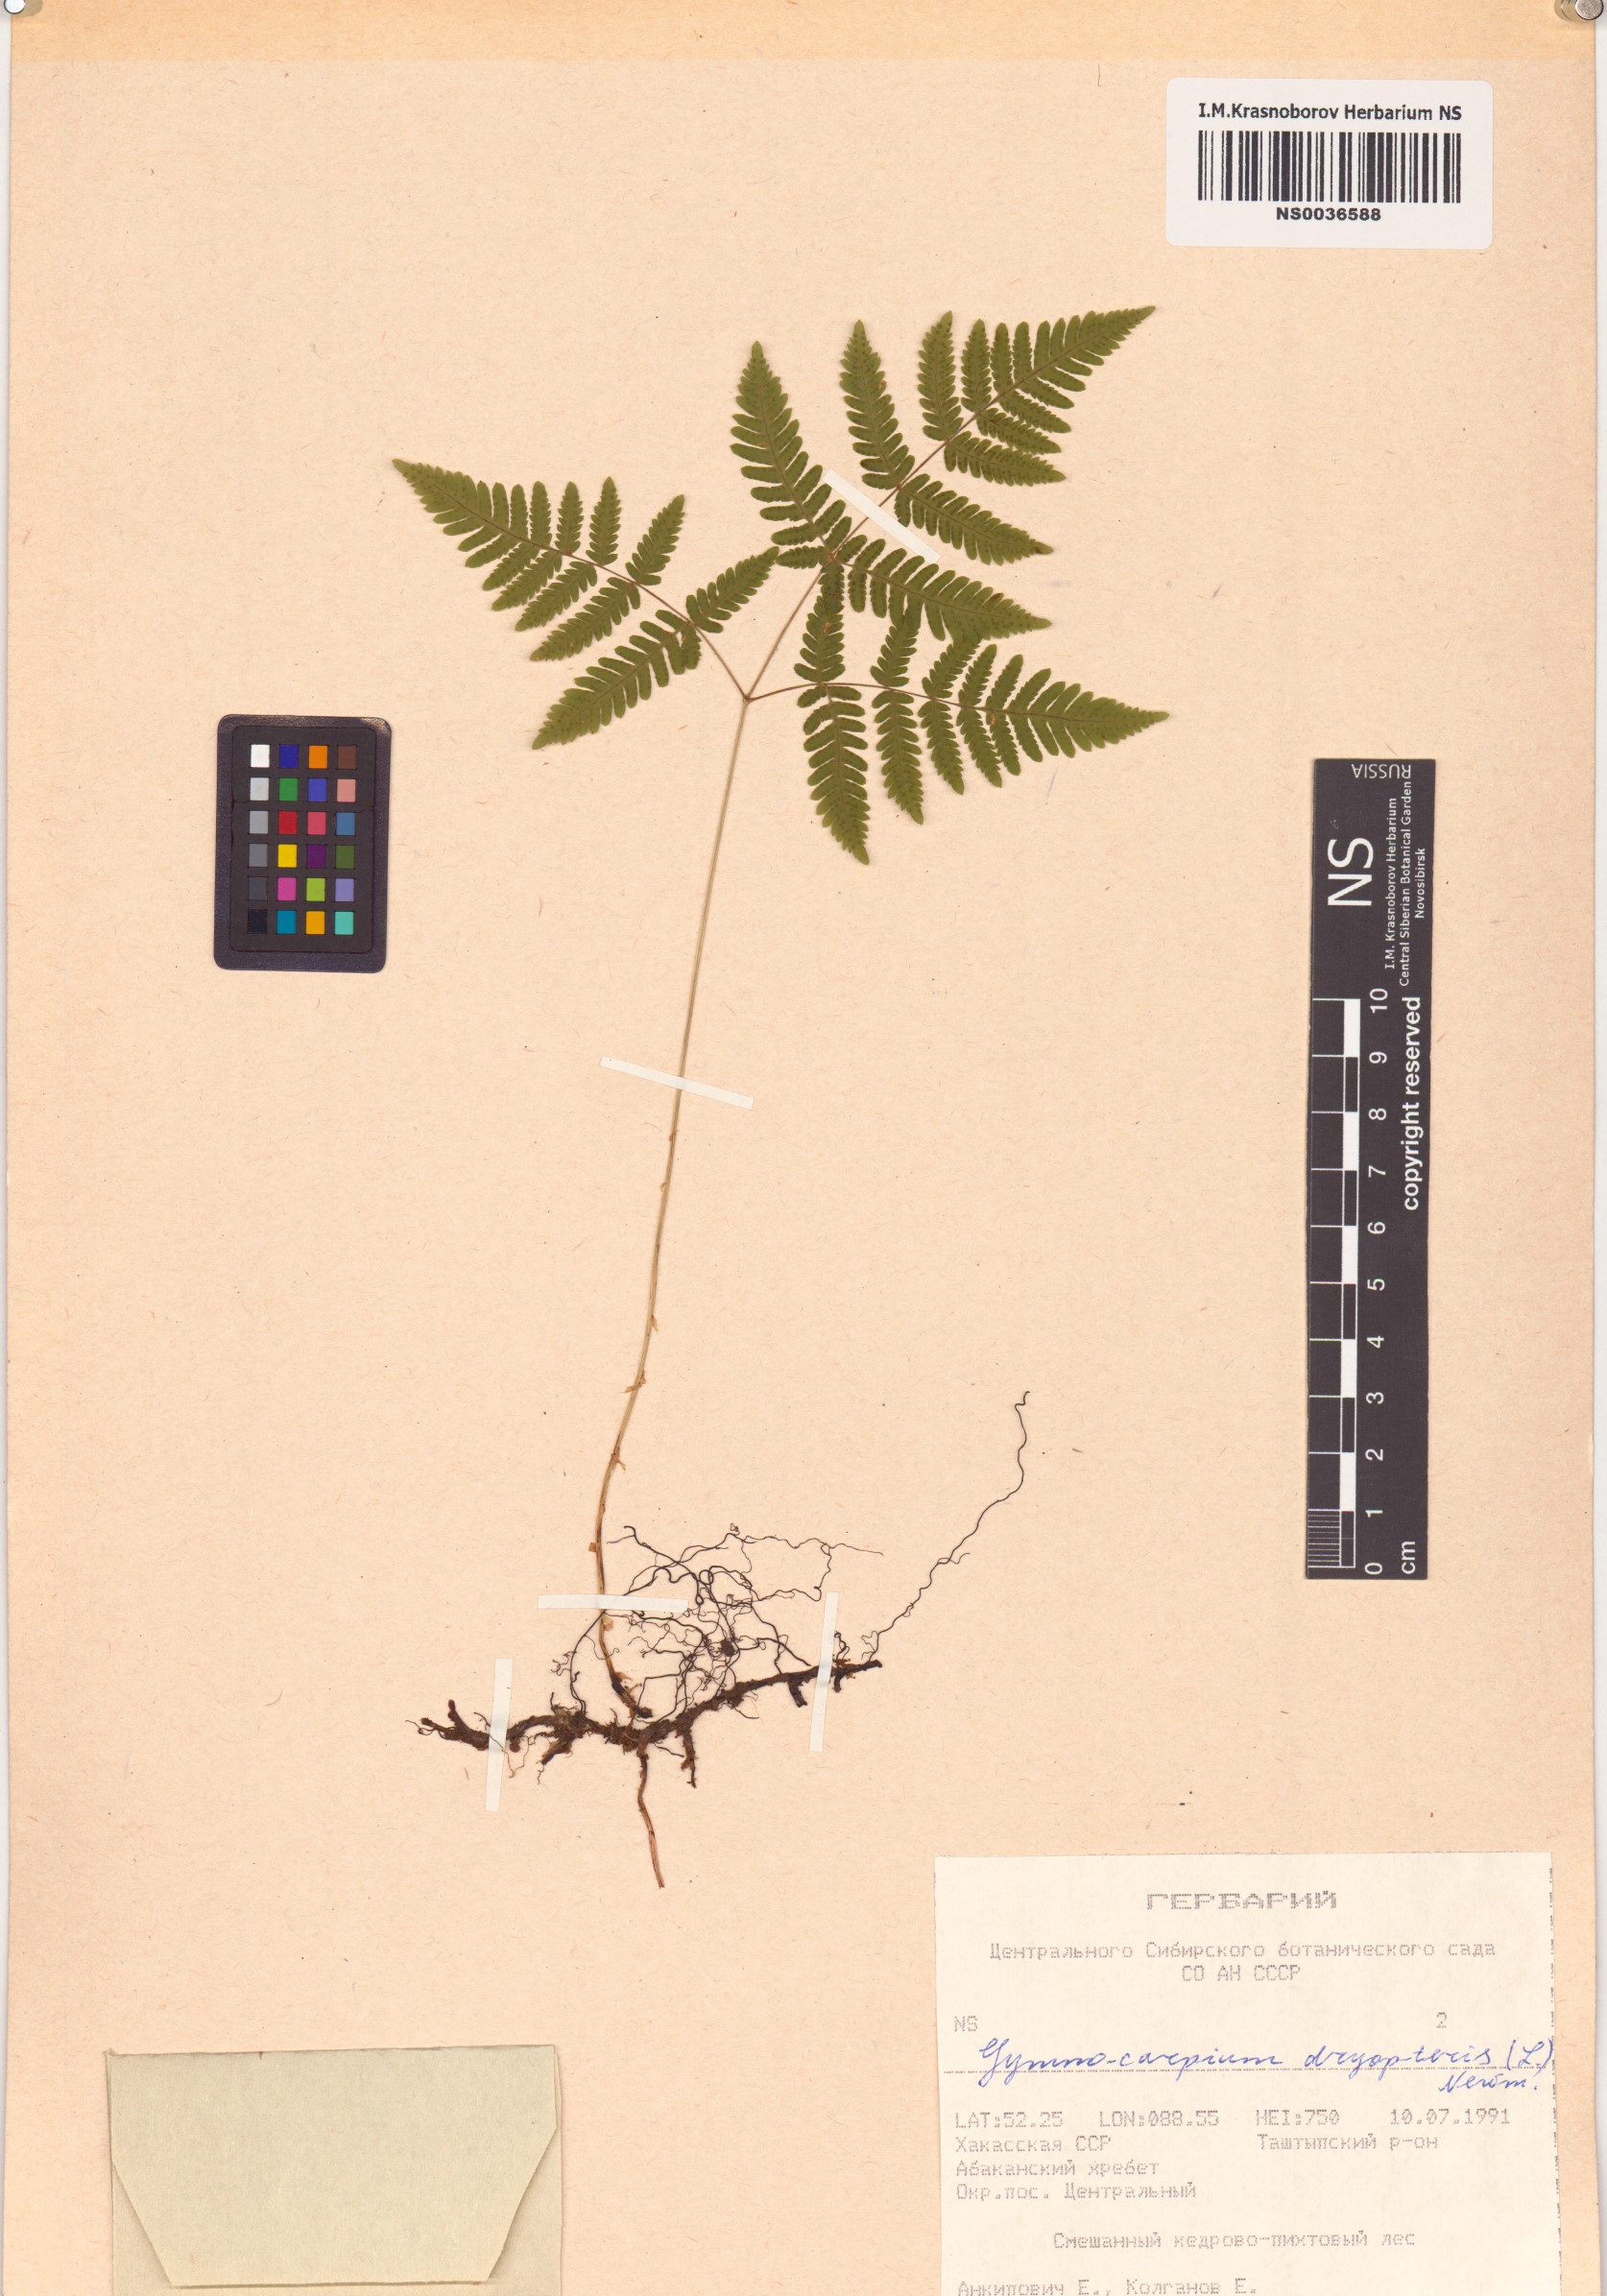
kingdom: Plantae
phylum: Tracheophyta
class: Polypodiopsida
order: Polypodiales
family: Cystopteridaceae
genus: Gymnocarpium
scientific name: Gymnocarpium dryopteris
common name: Oak fern
